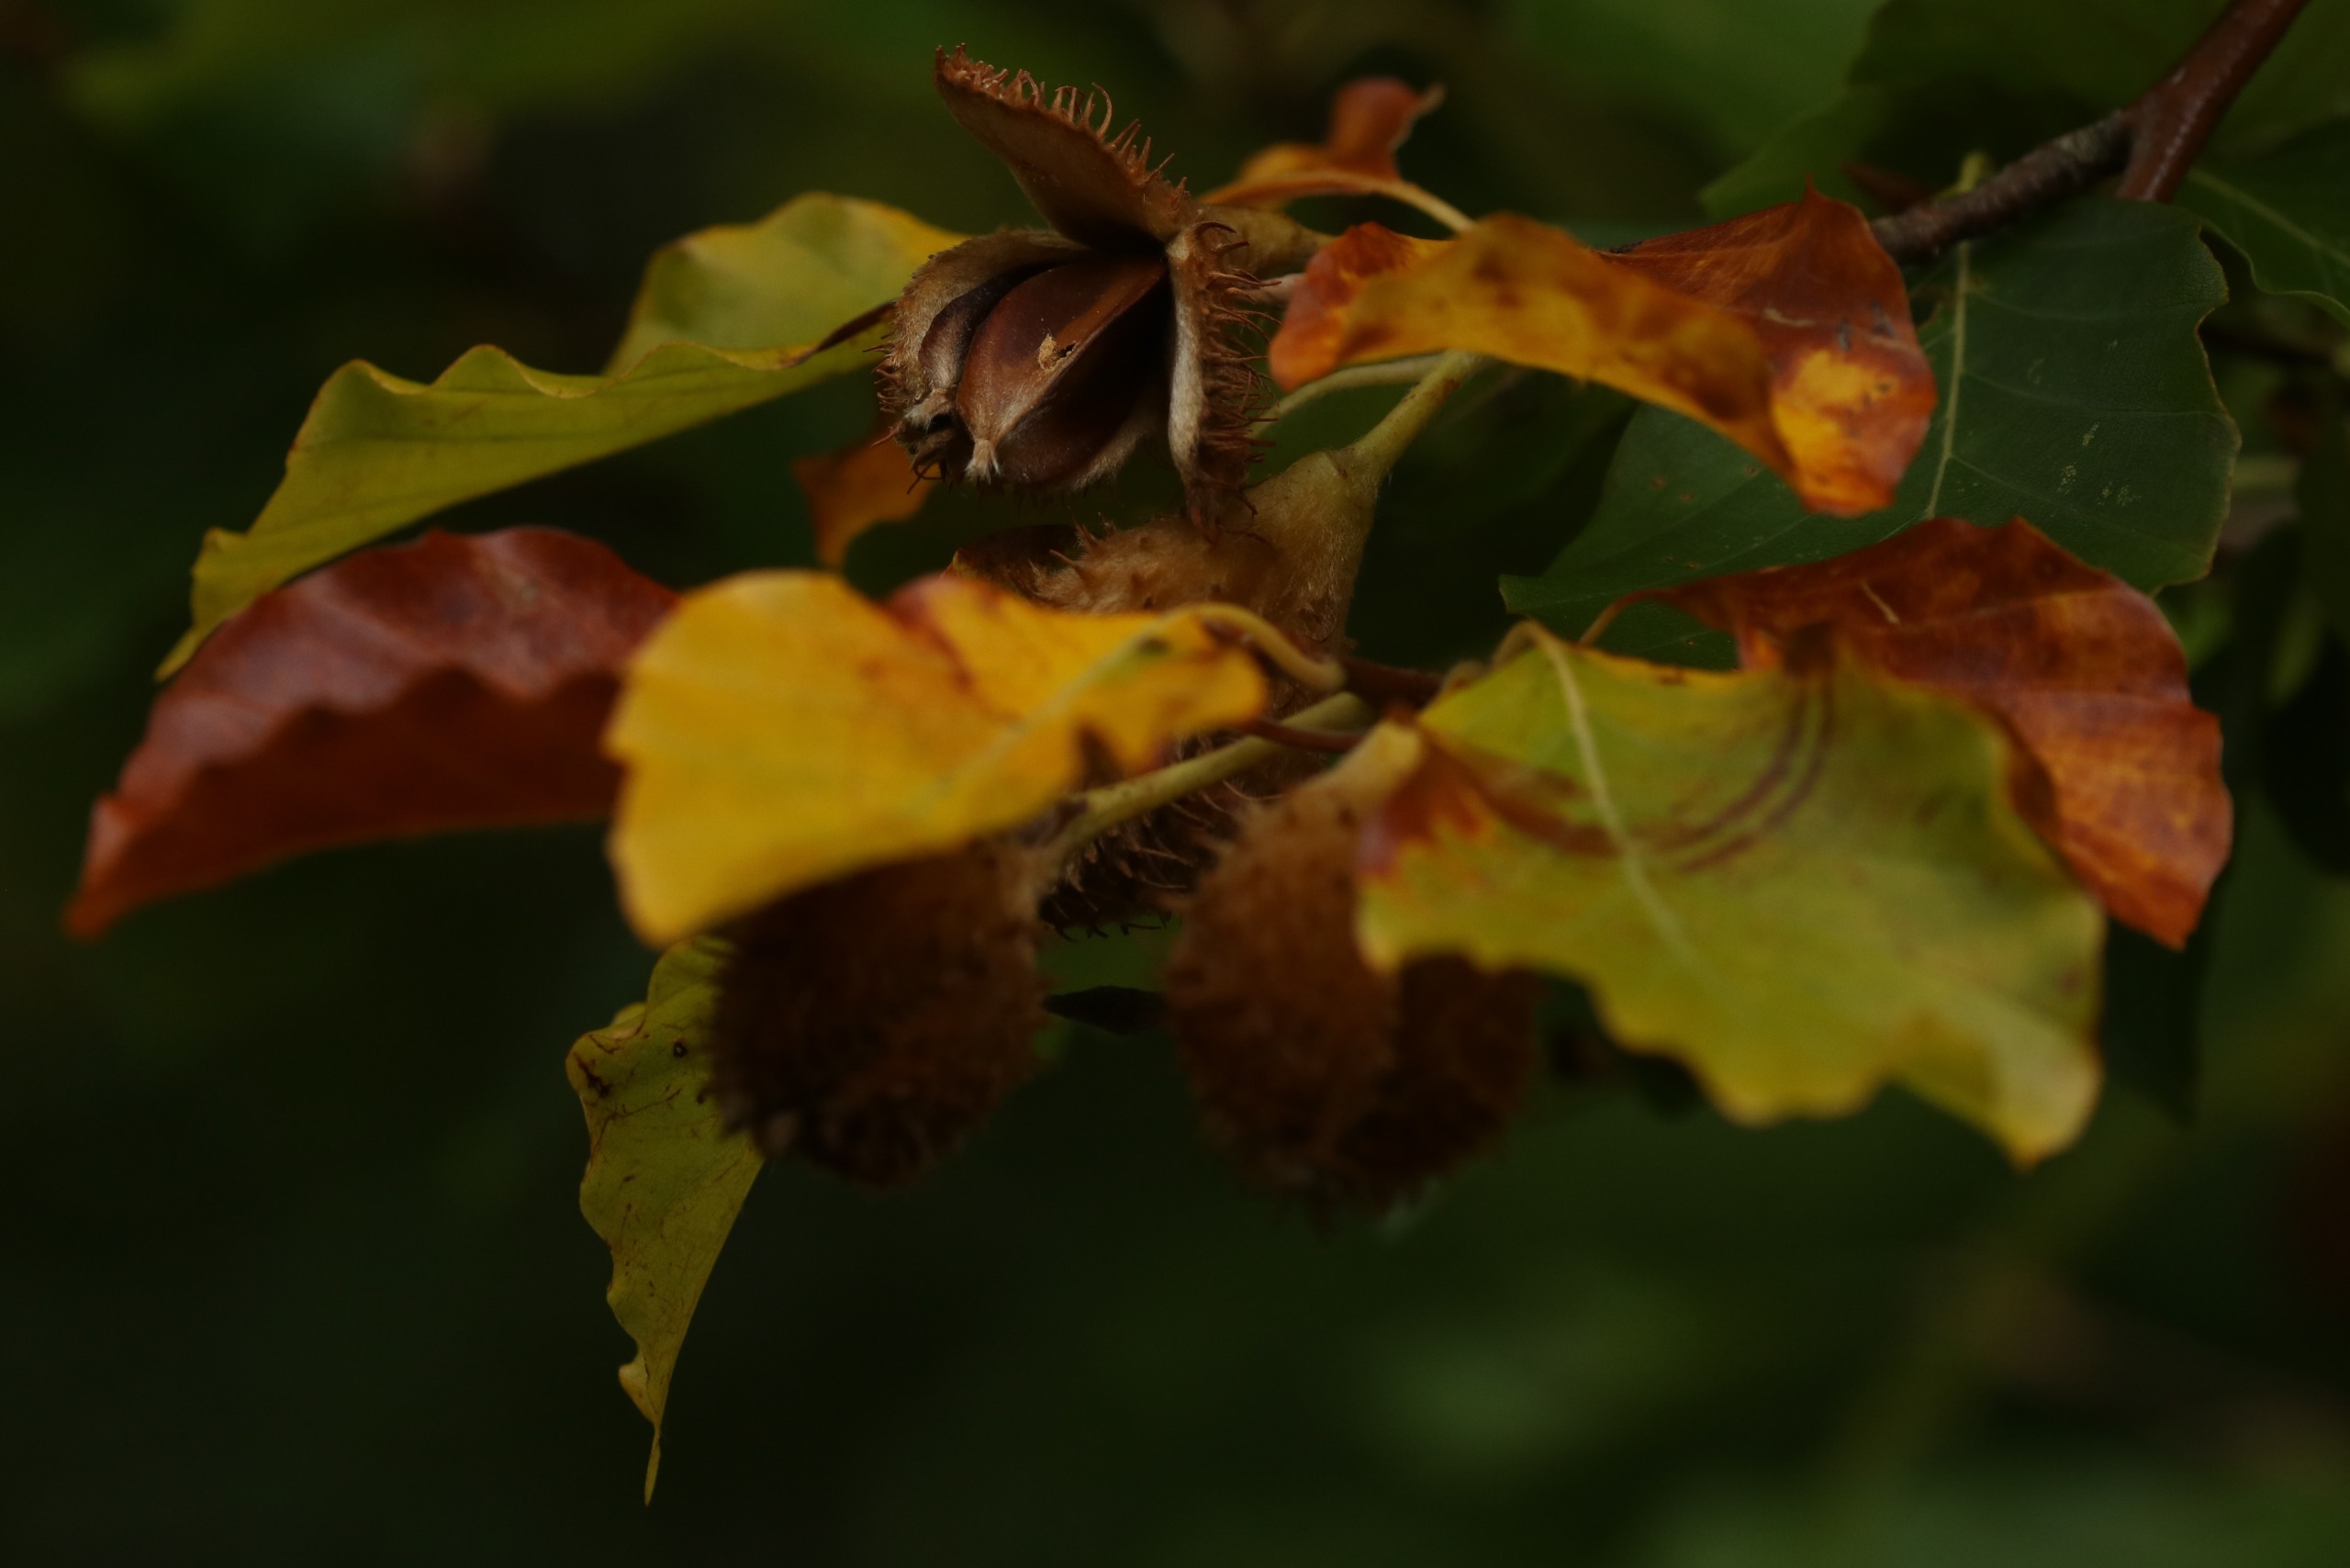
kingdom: Plantae
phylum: Tracheophyta
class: Magnoliopsida
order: Fagales
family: Fagaceae
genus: Fagus
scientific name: Fagus sylvatica
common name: Bøg
